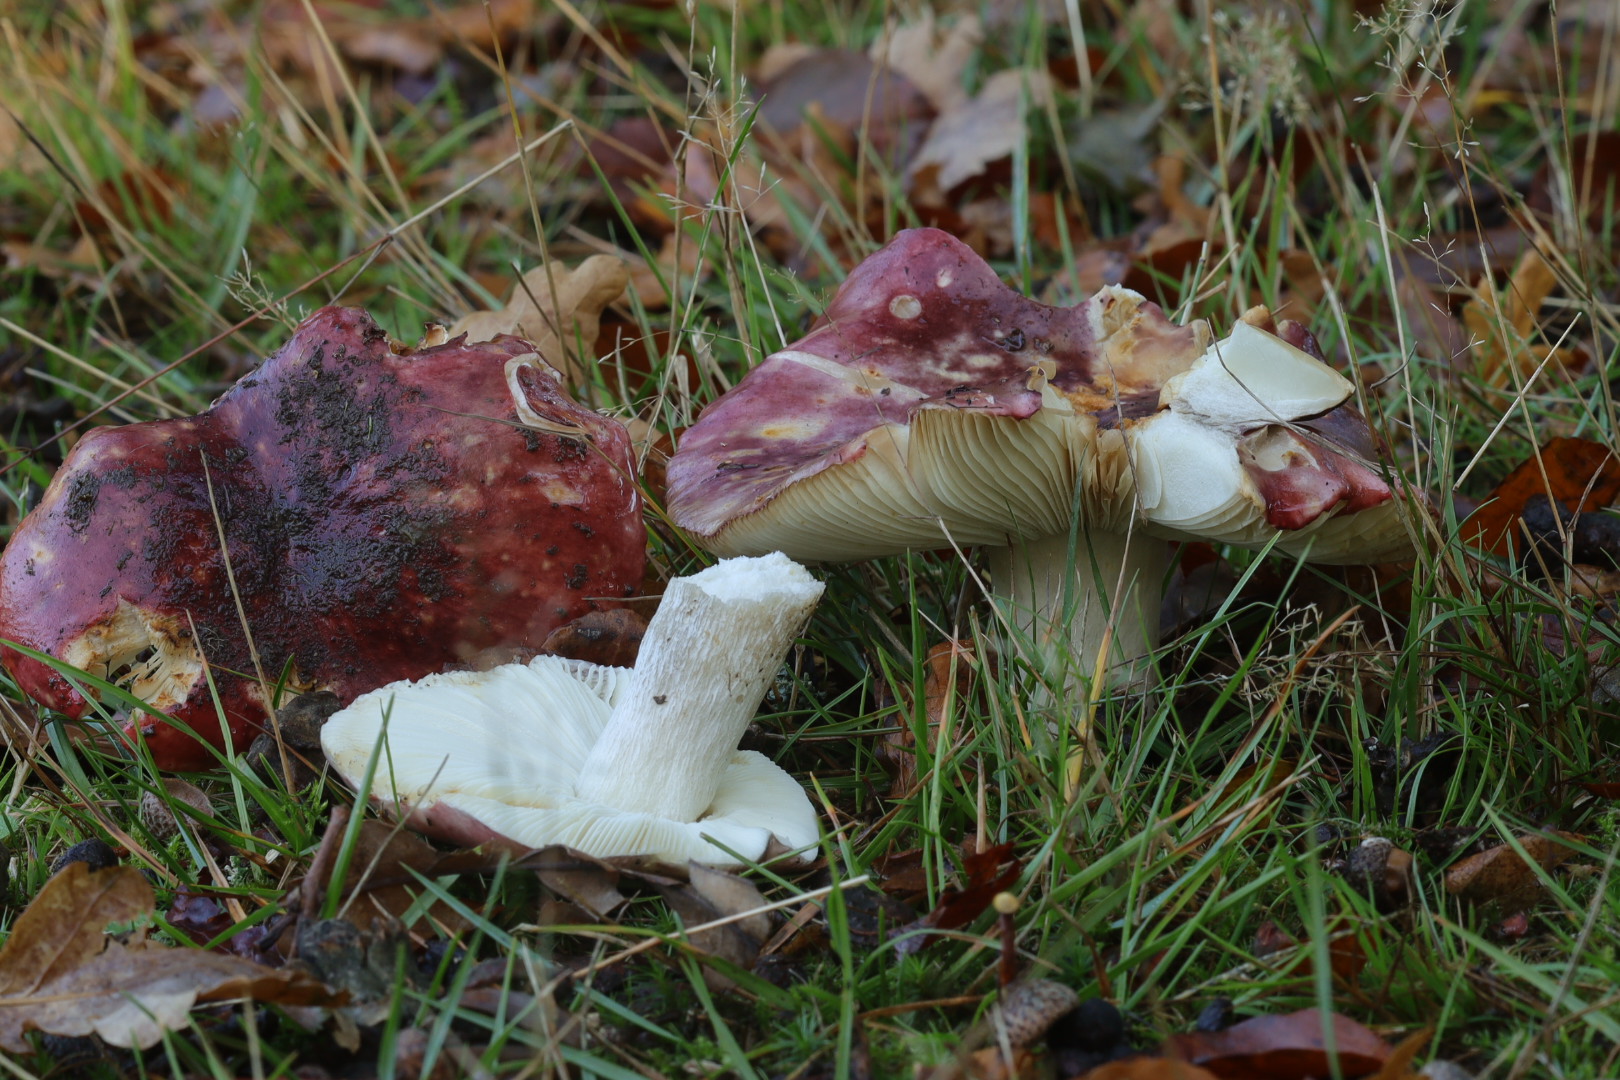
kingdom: Fungi
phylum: Basidiomycota
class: Agaricomycetes
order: Russulales
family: Russulaceae
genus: Russula
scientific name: Russula atropurpurea
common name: purpurbroget skørhat
